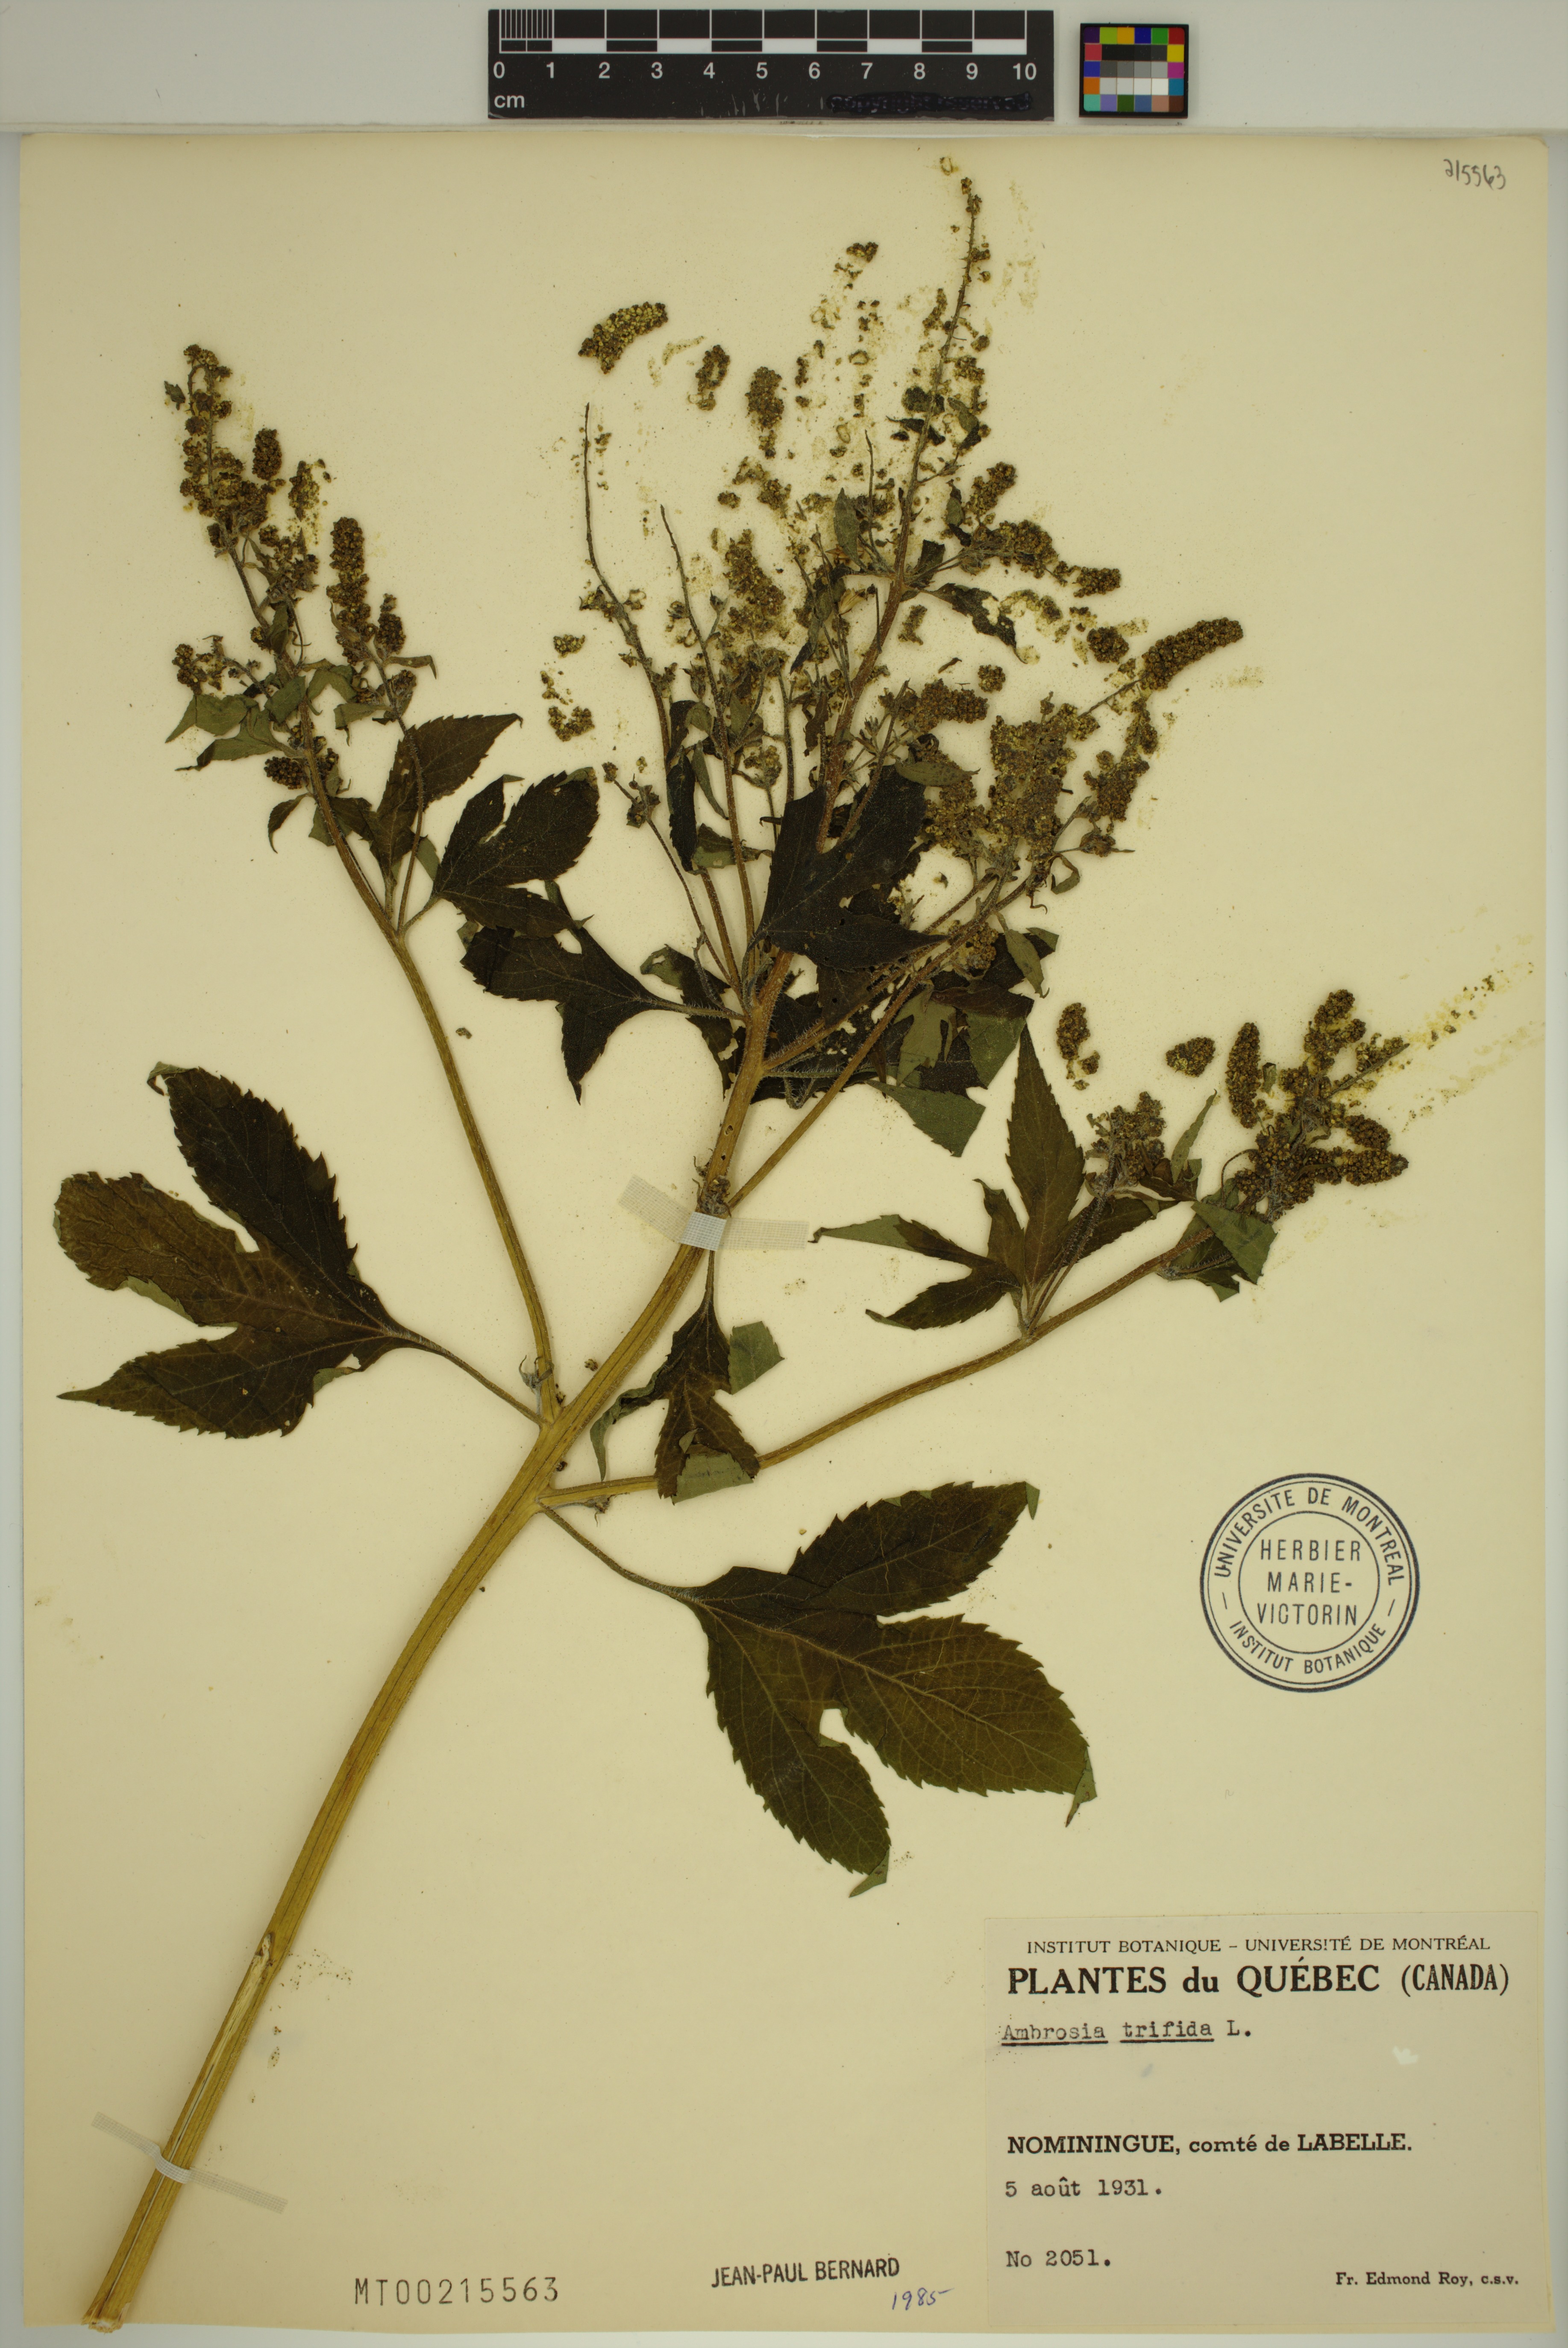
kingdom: Plantae
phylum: Tracheophyta
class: Magnoliopsida
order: Asterales
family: Asteraceae
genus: Ambrosia
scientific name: Ambrosia trifida
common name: Giant ragweed
